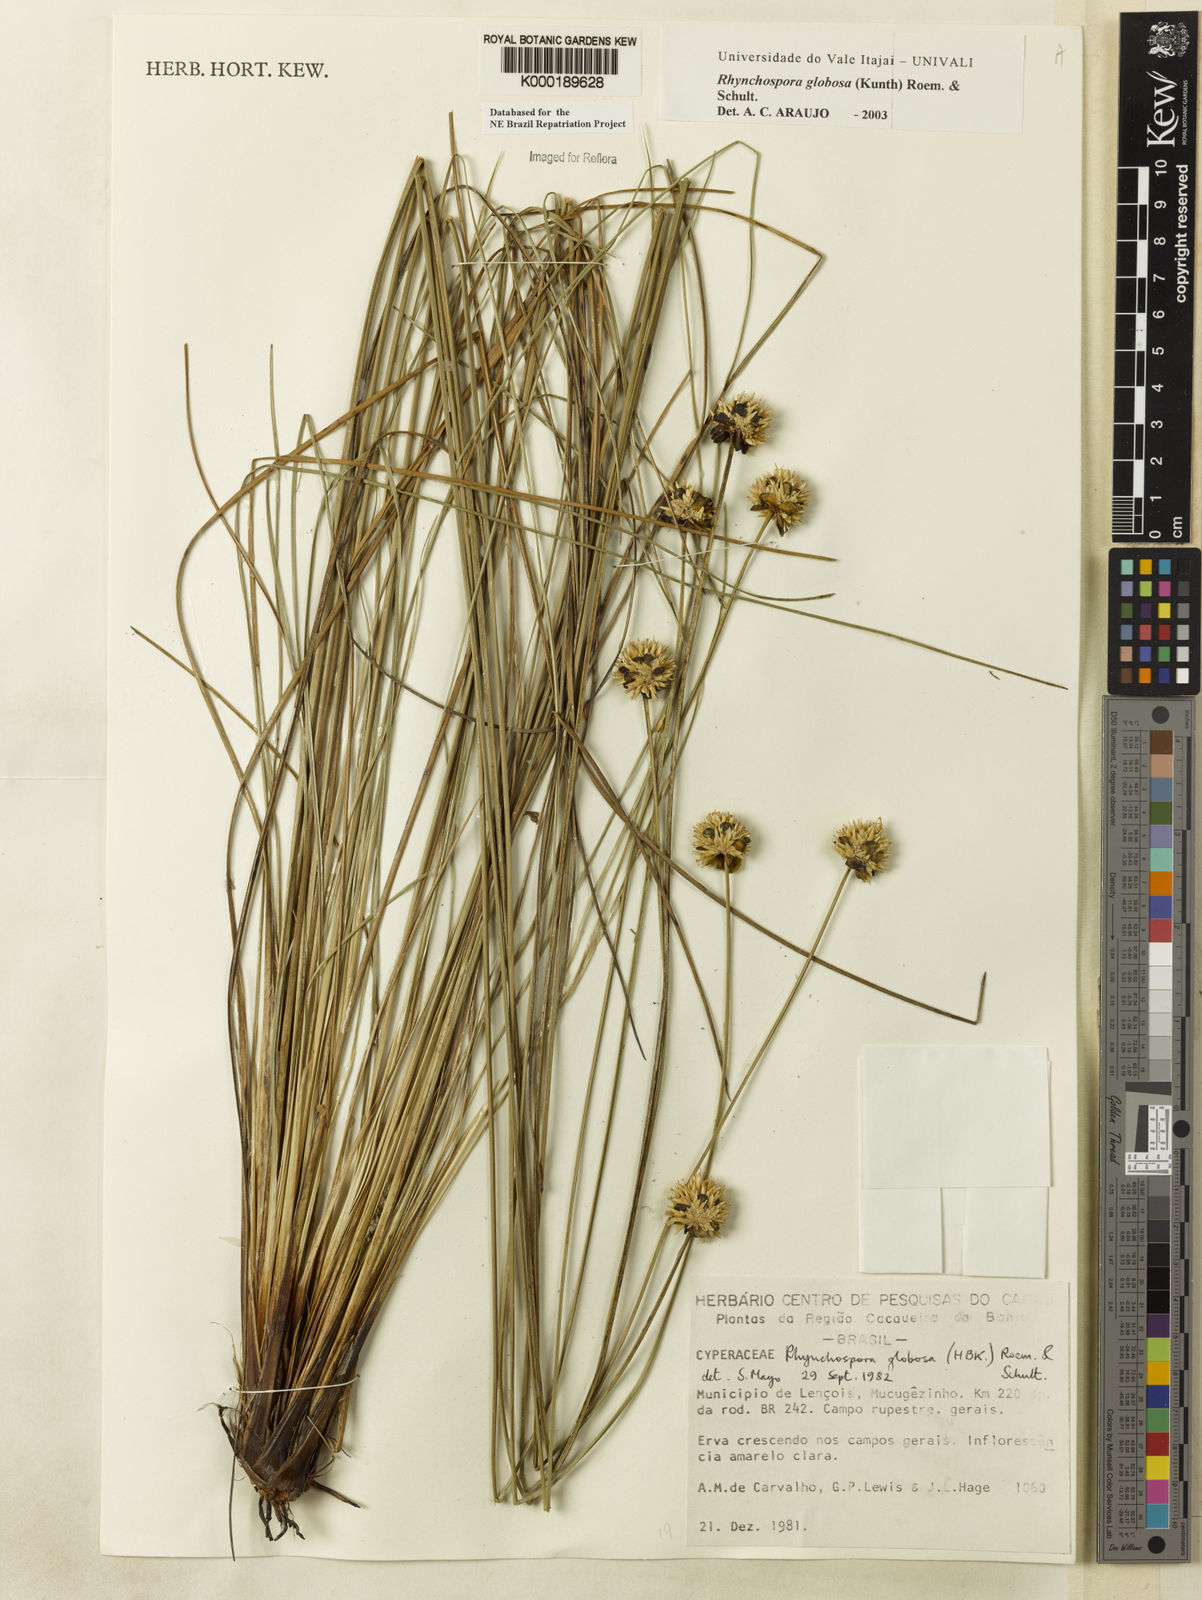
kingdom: Plantae
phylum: Tracheophyta
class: Liliopsida
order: Poales
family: Cyperaceae
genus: Rhynchospora
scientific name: Rhynchospora globosa
